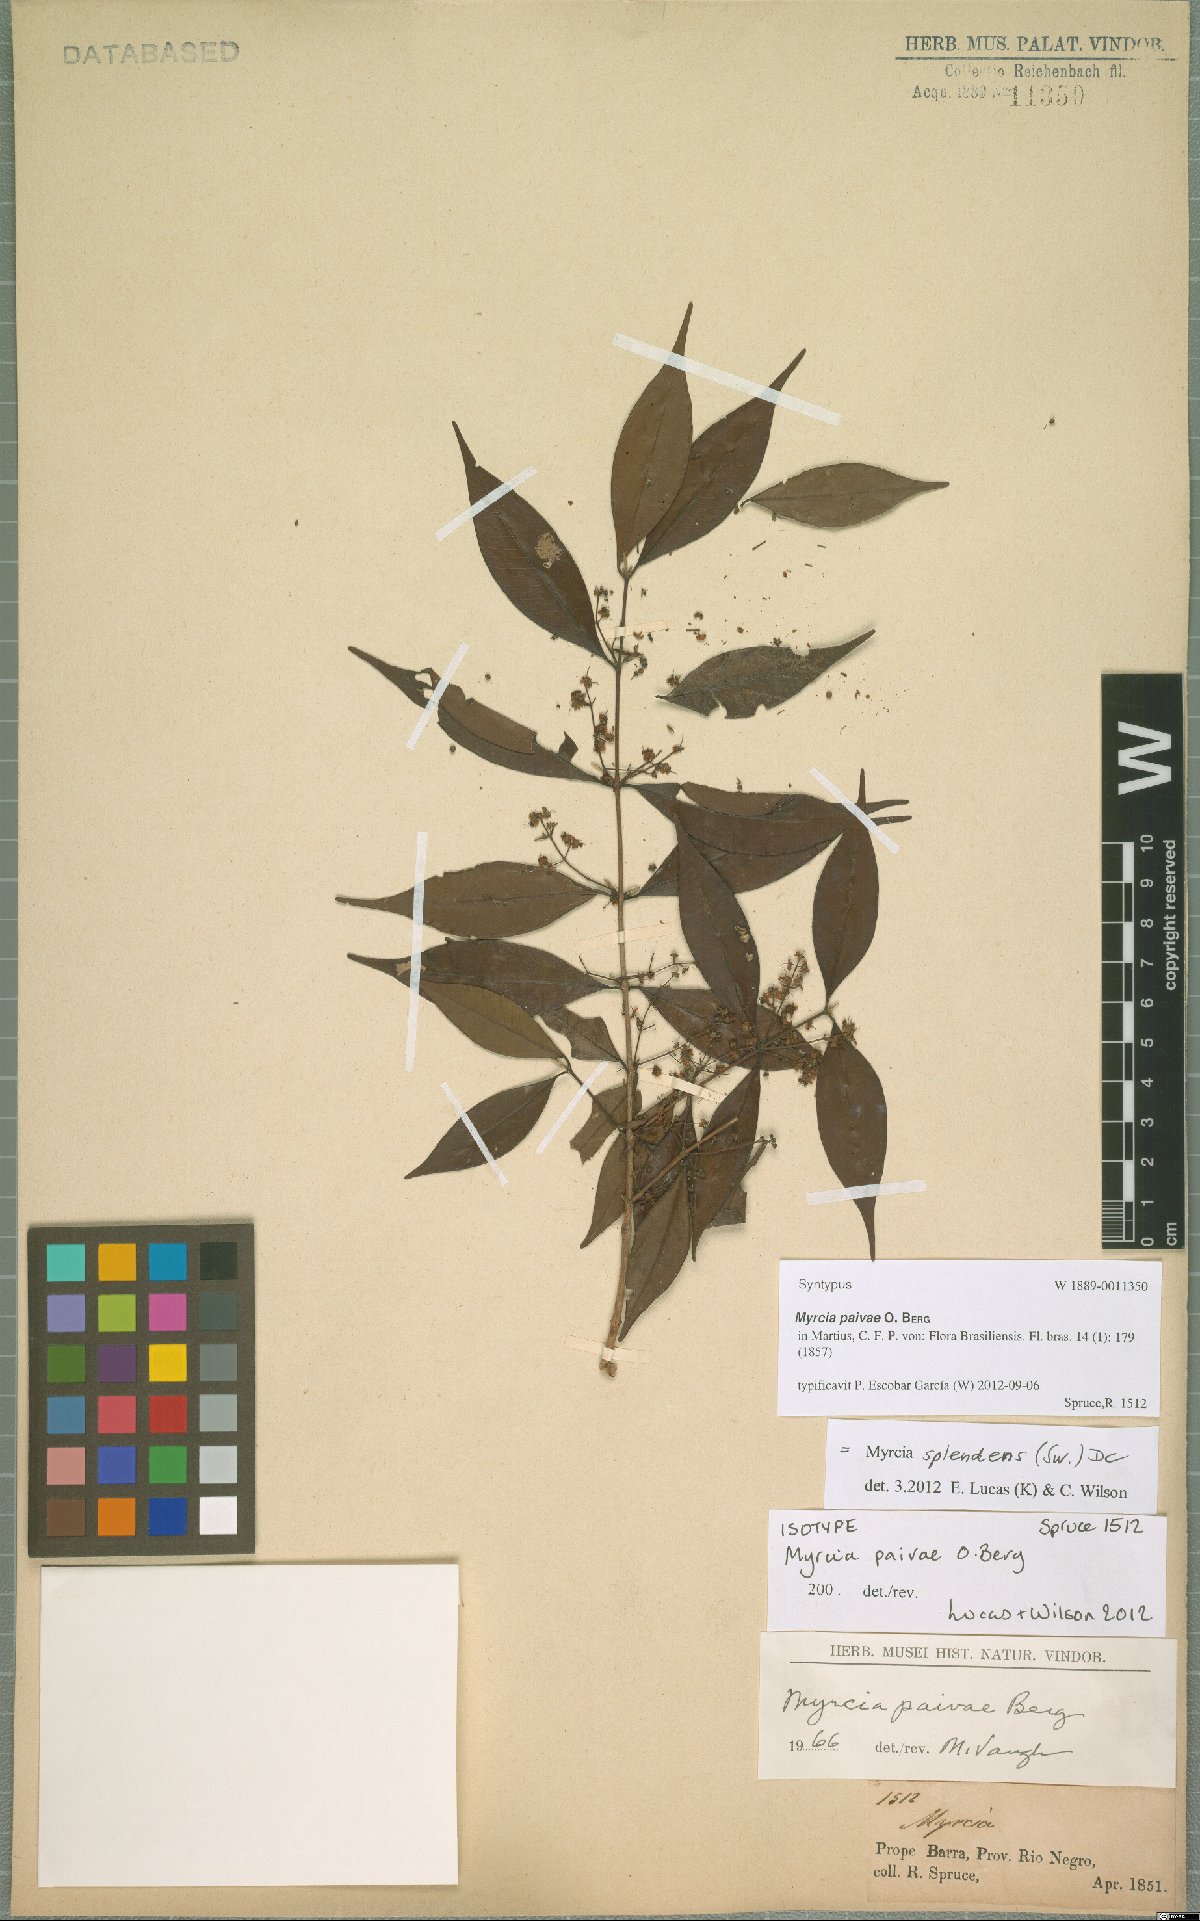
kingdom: Plantae
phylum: Tracheophyta
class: Magnoliopsida
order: Myrtales
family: Myrtaceae
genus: Myrcia
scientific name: Myrcia splendens
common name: Surinam cherry
